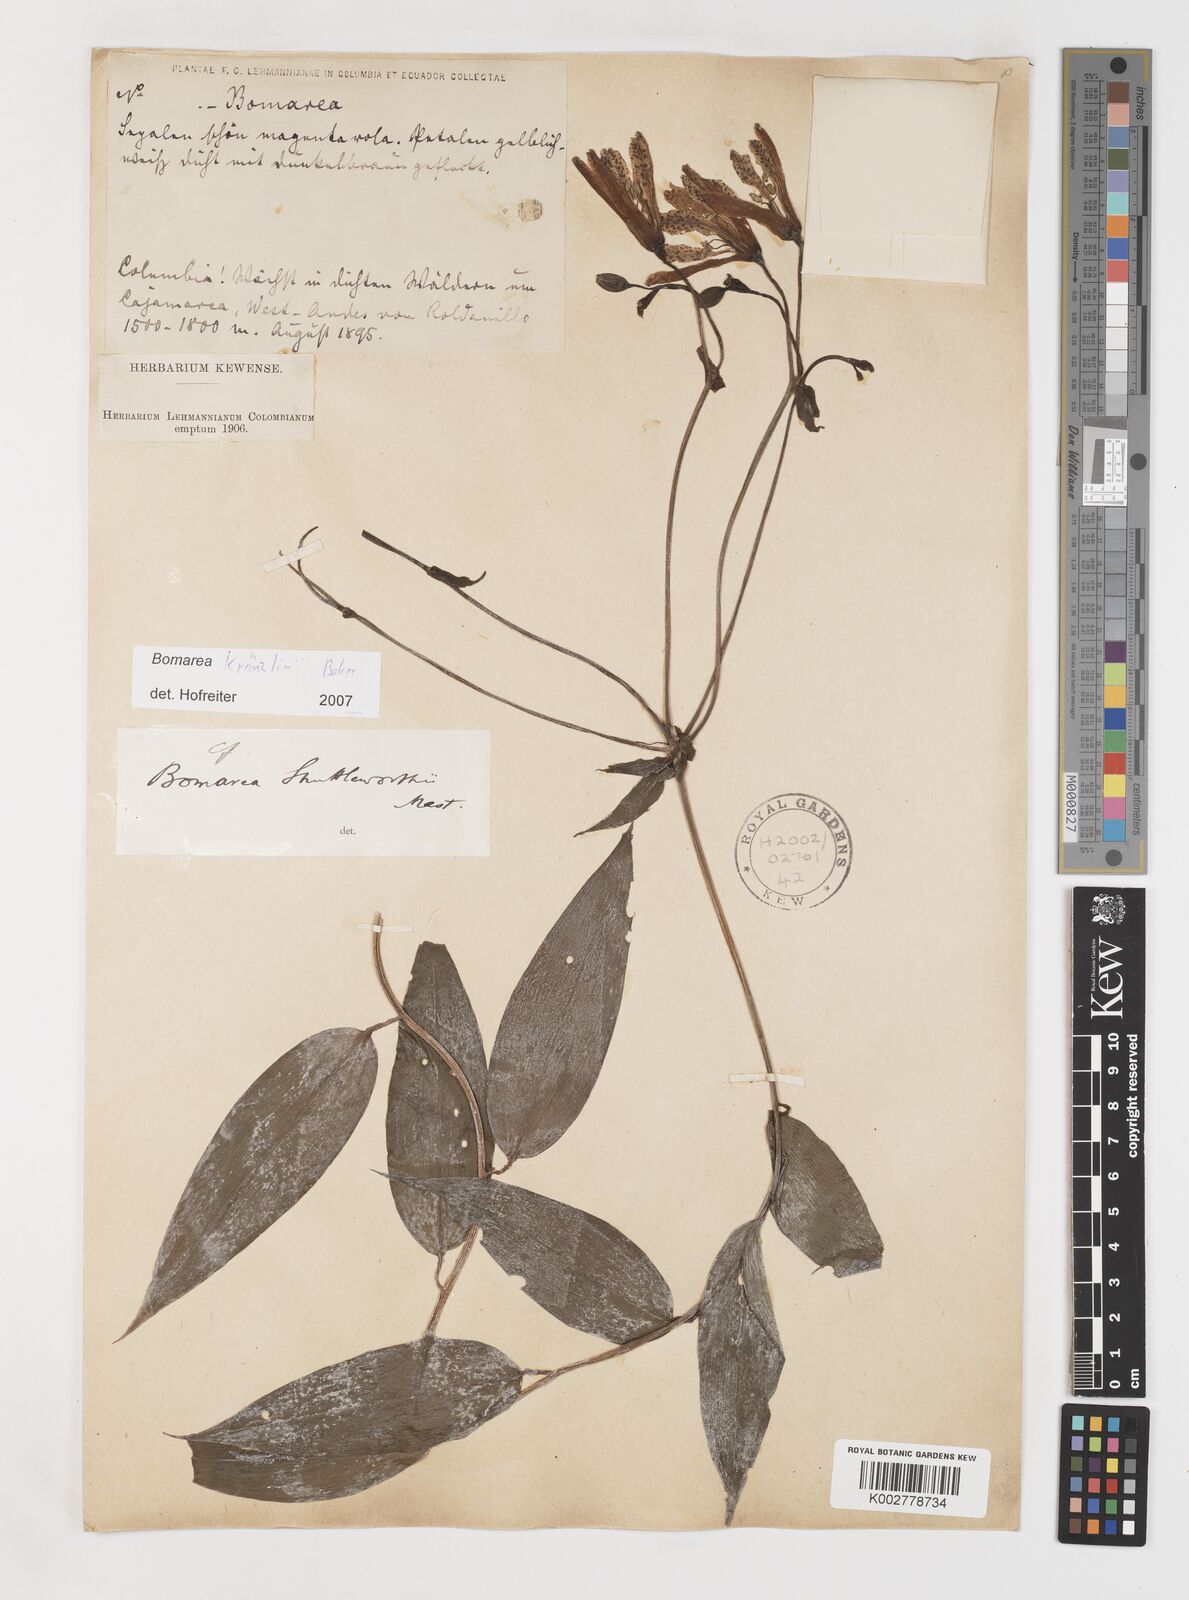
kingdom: Plantae
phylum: Tracheophyta
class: Liliopsida
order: Liliales
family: Alstroemeriaceae
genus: Bomarea
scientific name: Bomarea kraenzlinii
